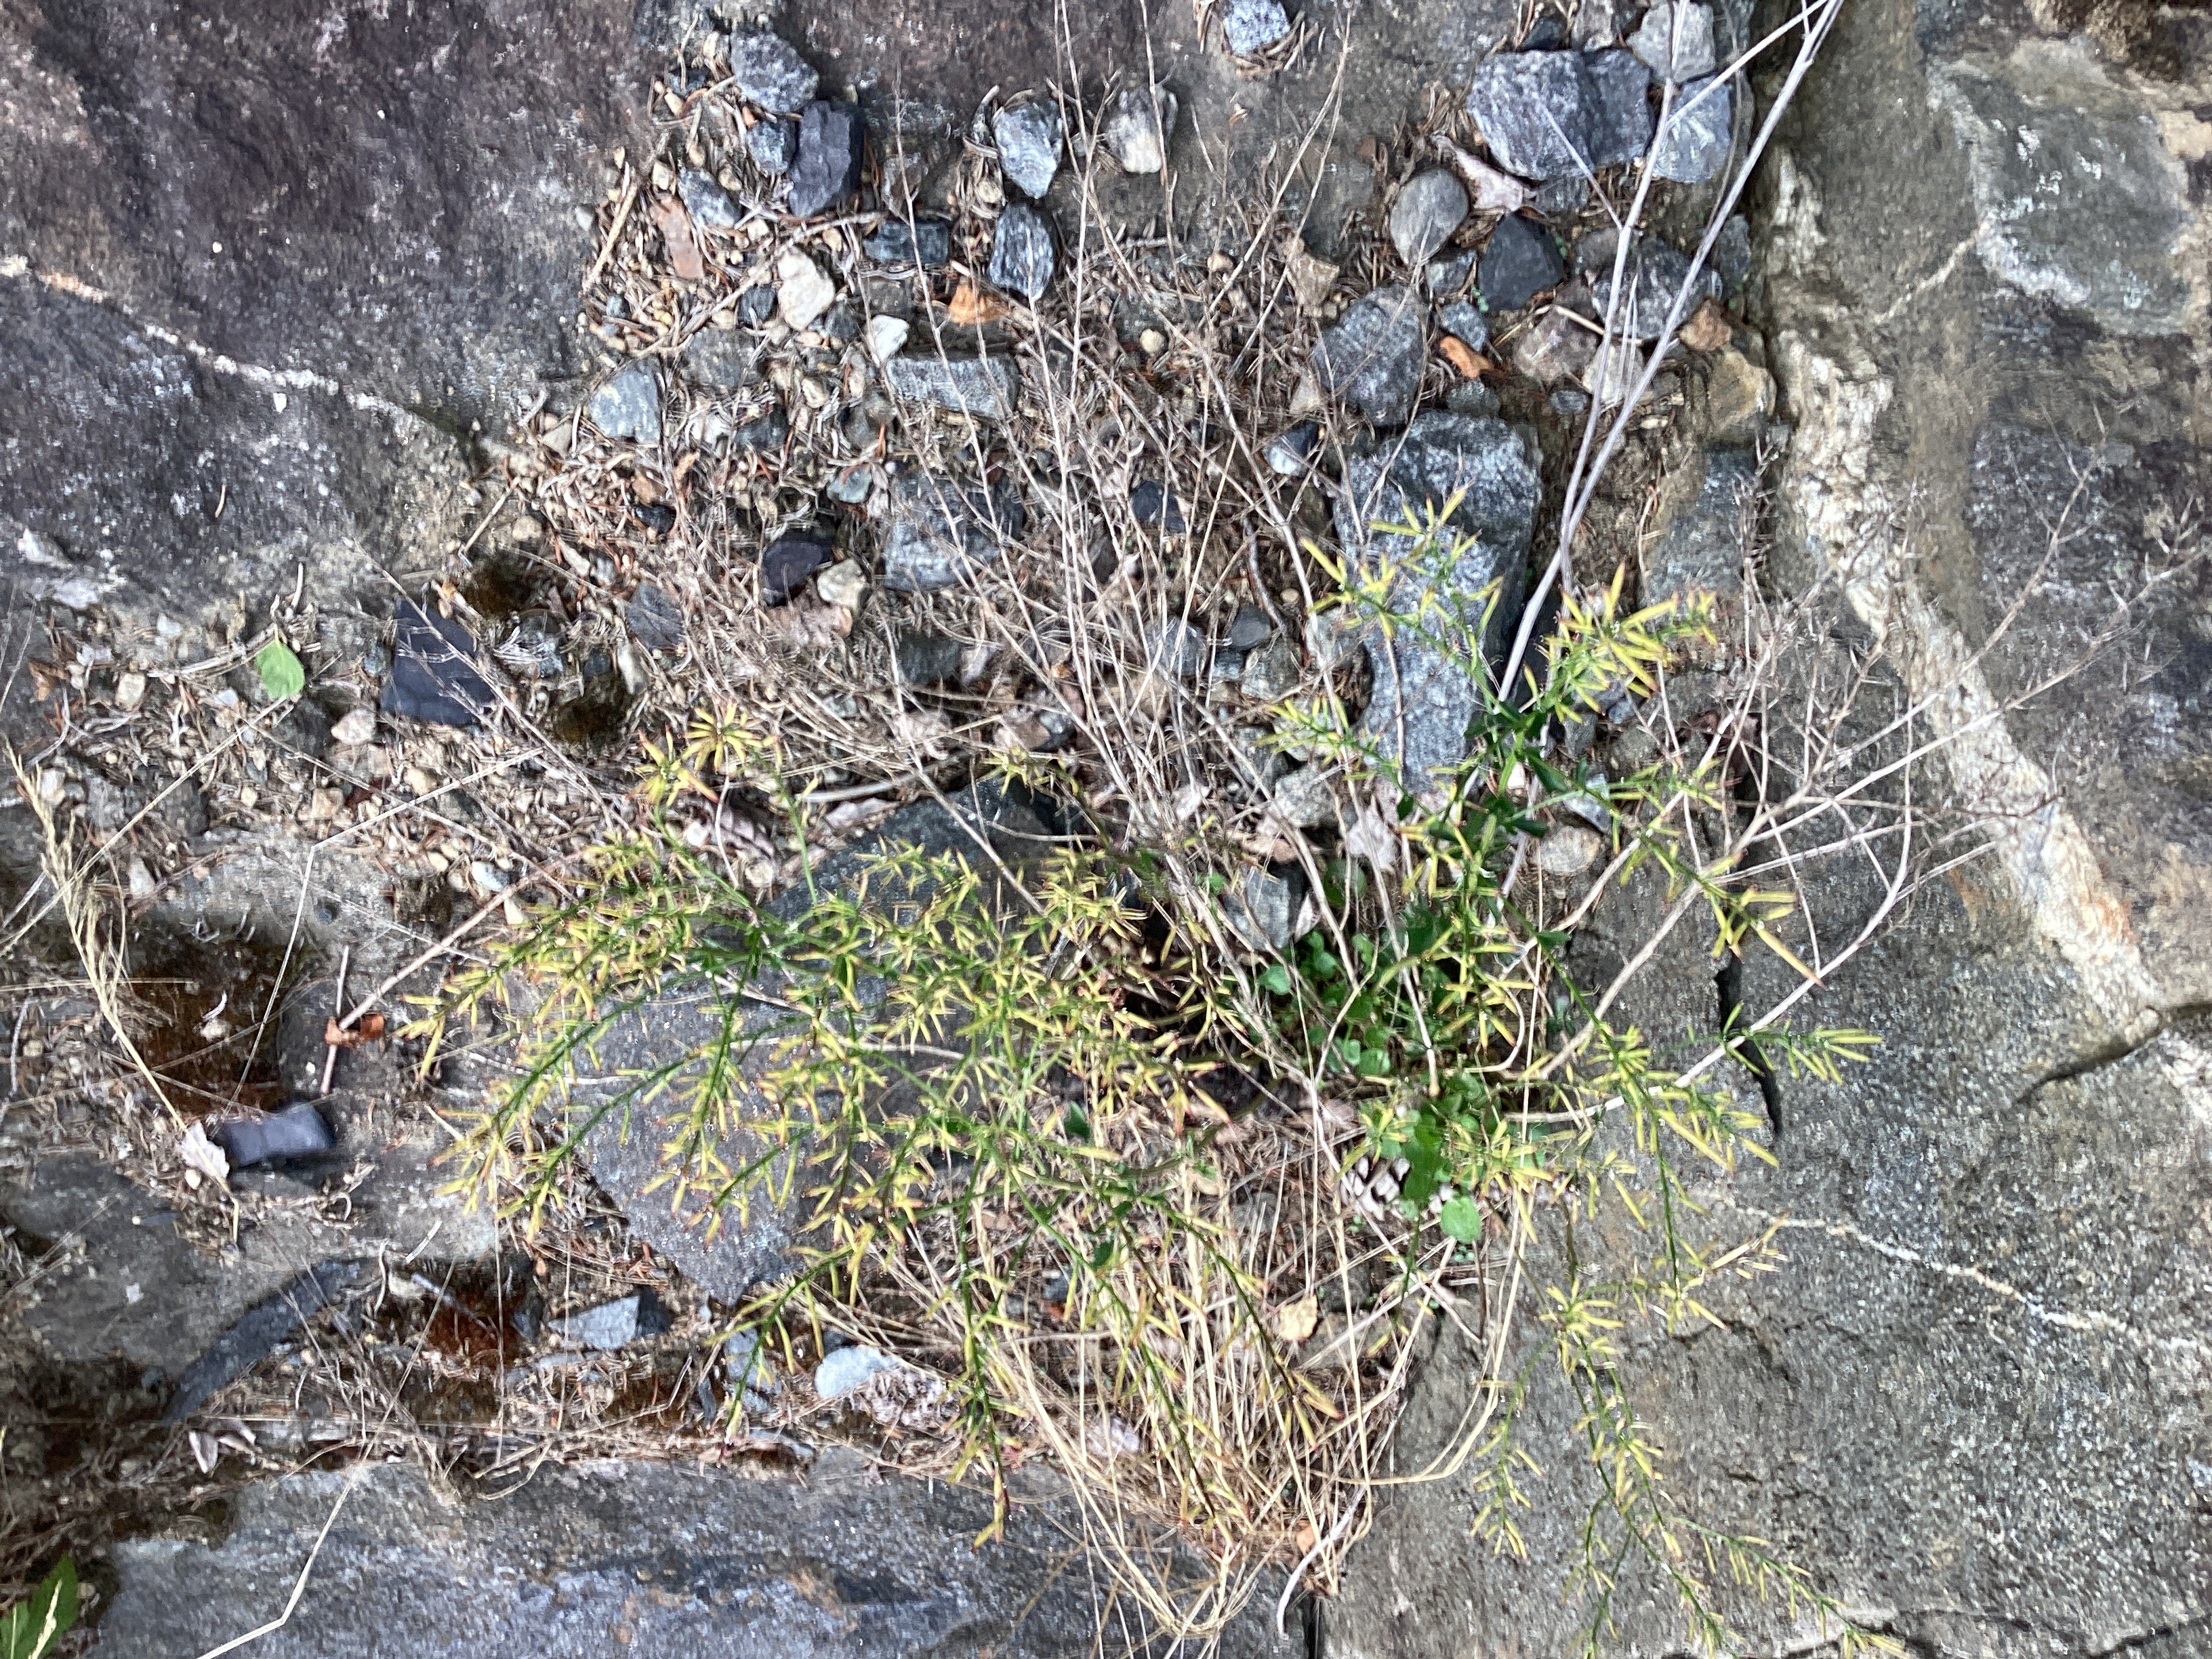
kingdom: Plantae
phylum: Tracheophyta
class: Magnoliopsida
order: Brassicales
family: Brassicaceae
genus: Barbarea
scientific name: Barbarea vulgaris
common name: vinterkarse
